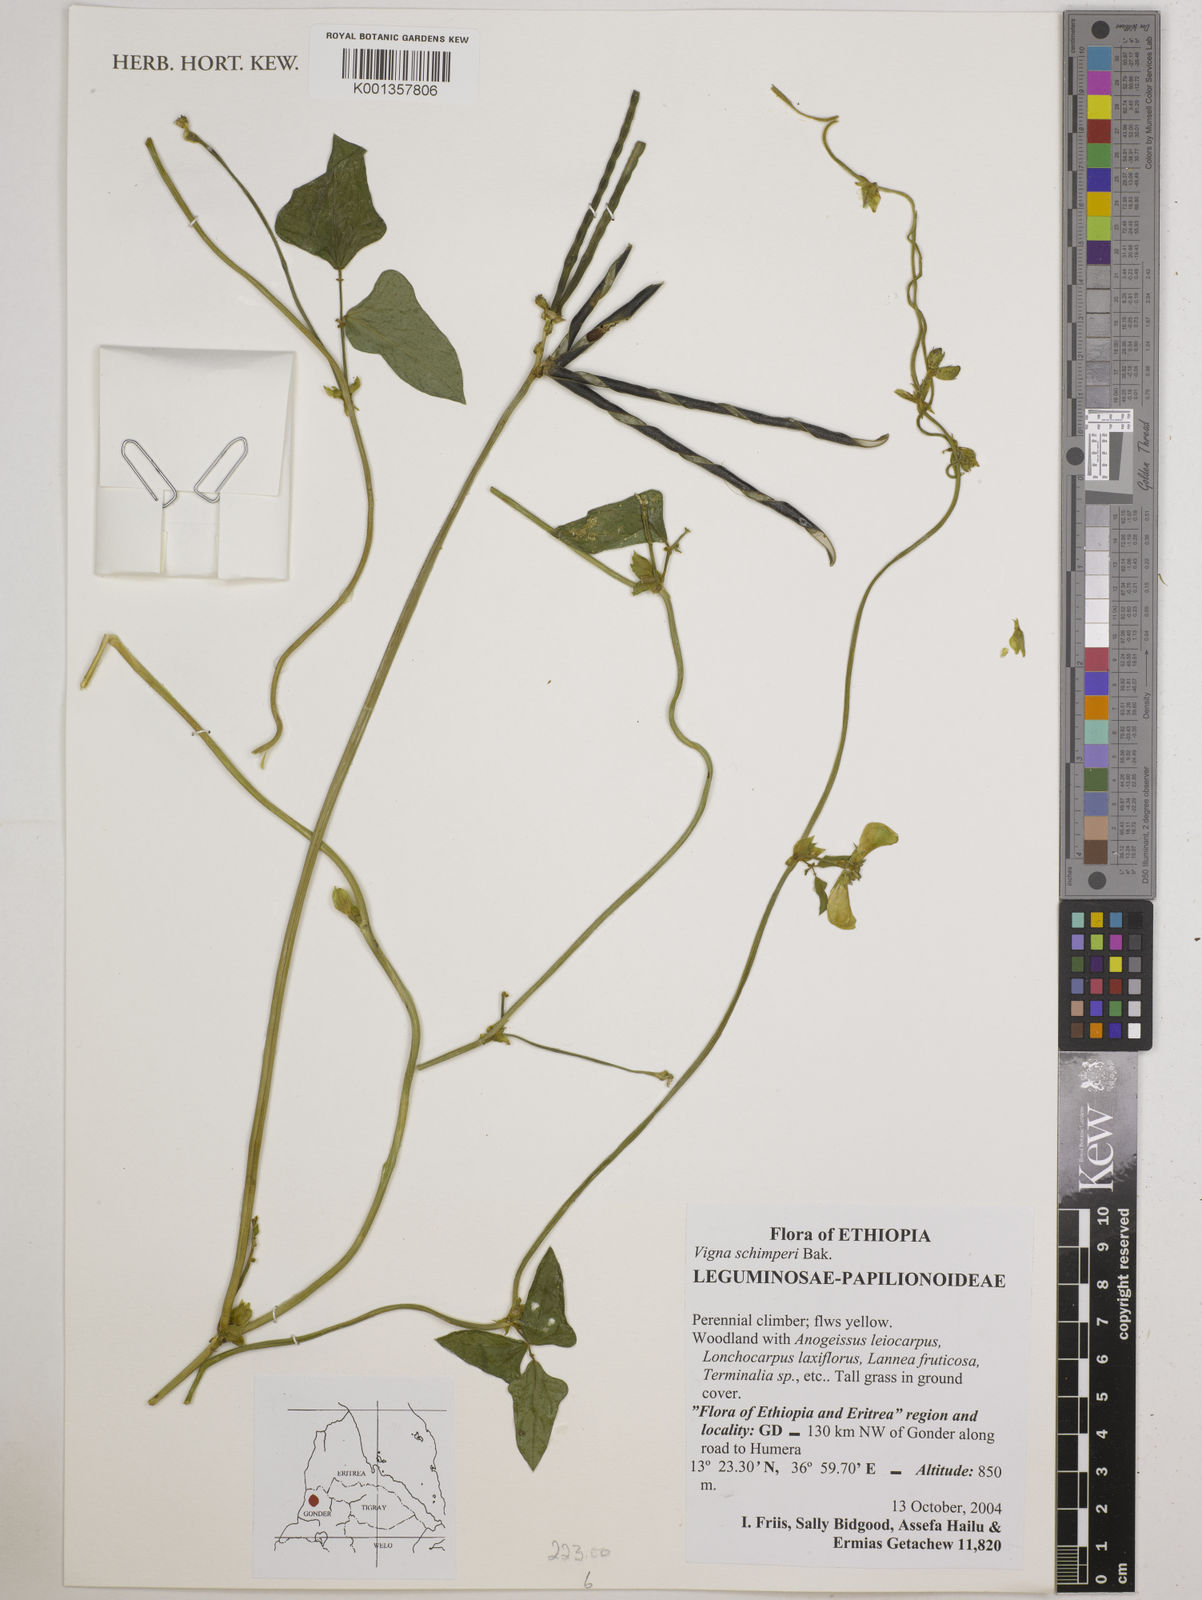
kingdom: Plantae
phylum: Tracheophyta
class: Magnoliopsida
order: Fabales
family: Fabaceae
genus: Vigna
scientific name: Vigna schimperi
